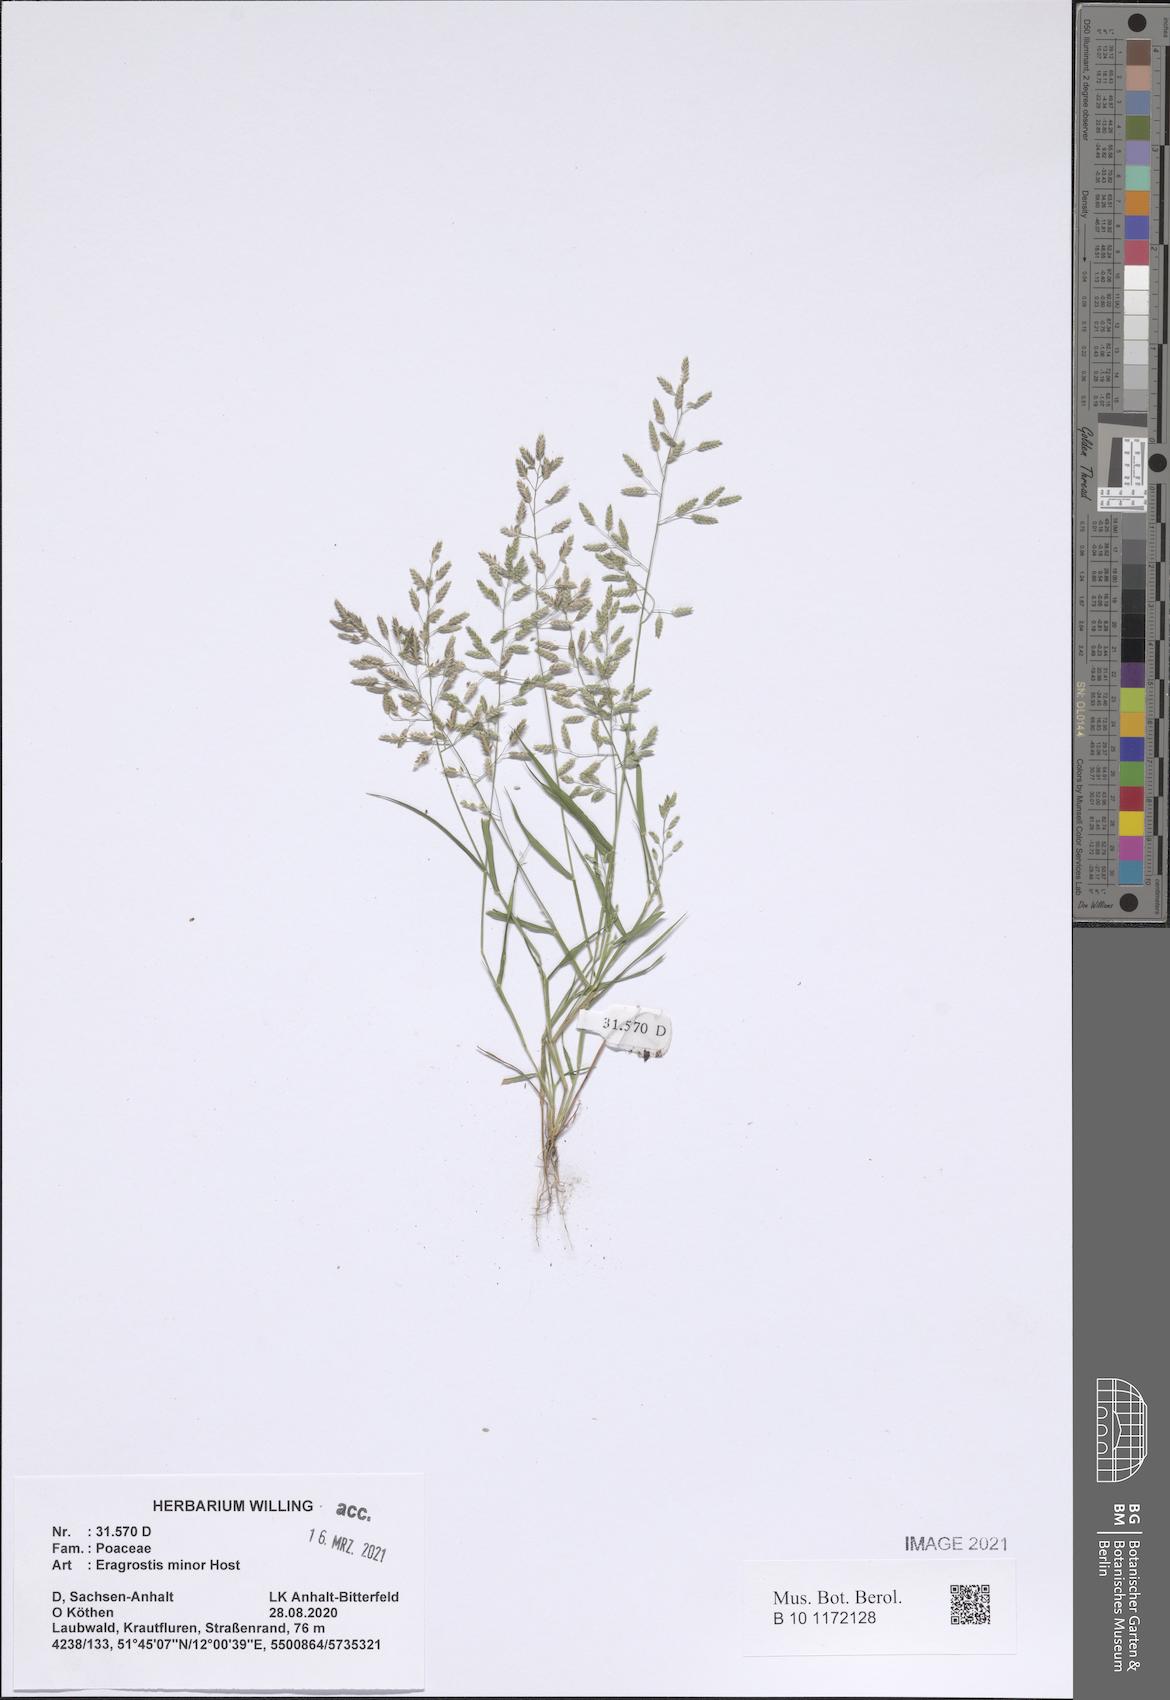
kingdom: Plantae
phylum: Tracheophyta
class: Liliopsida
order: Poales
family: Poaceae
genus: Eragrostis
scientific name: Eragrostis minor
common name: Small love-grass
